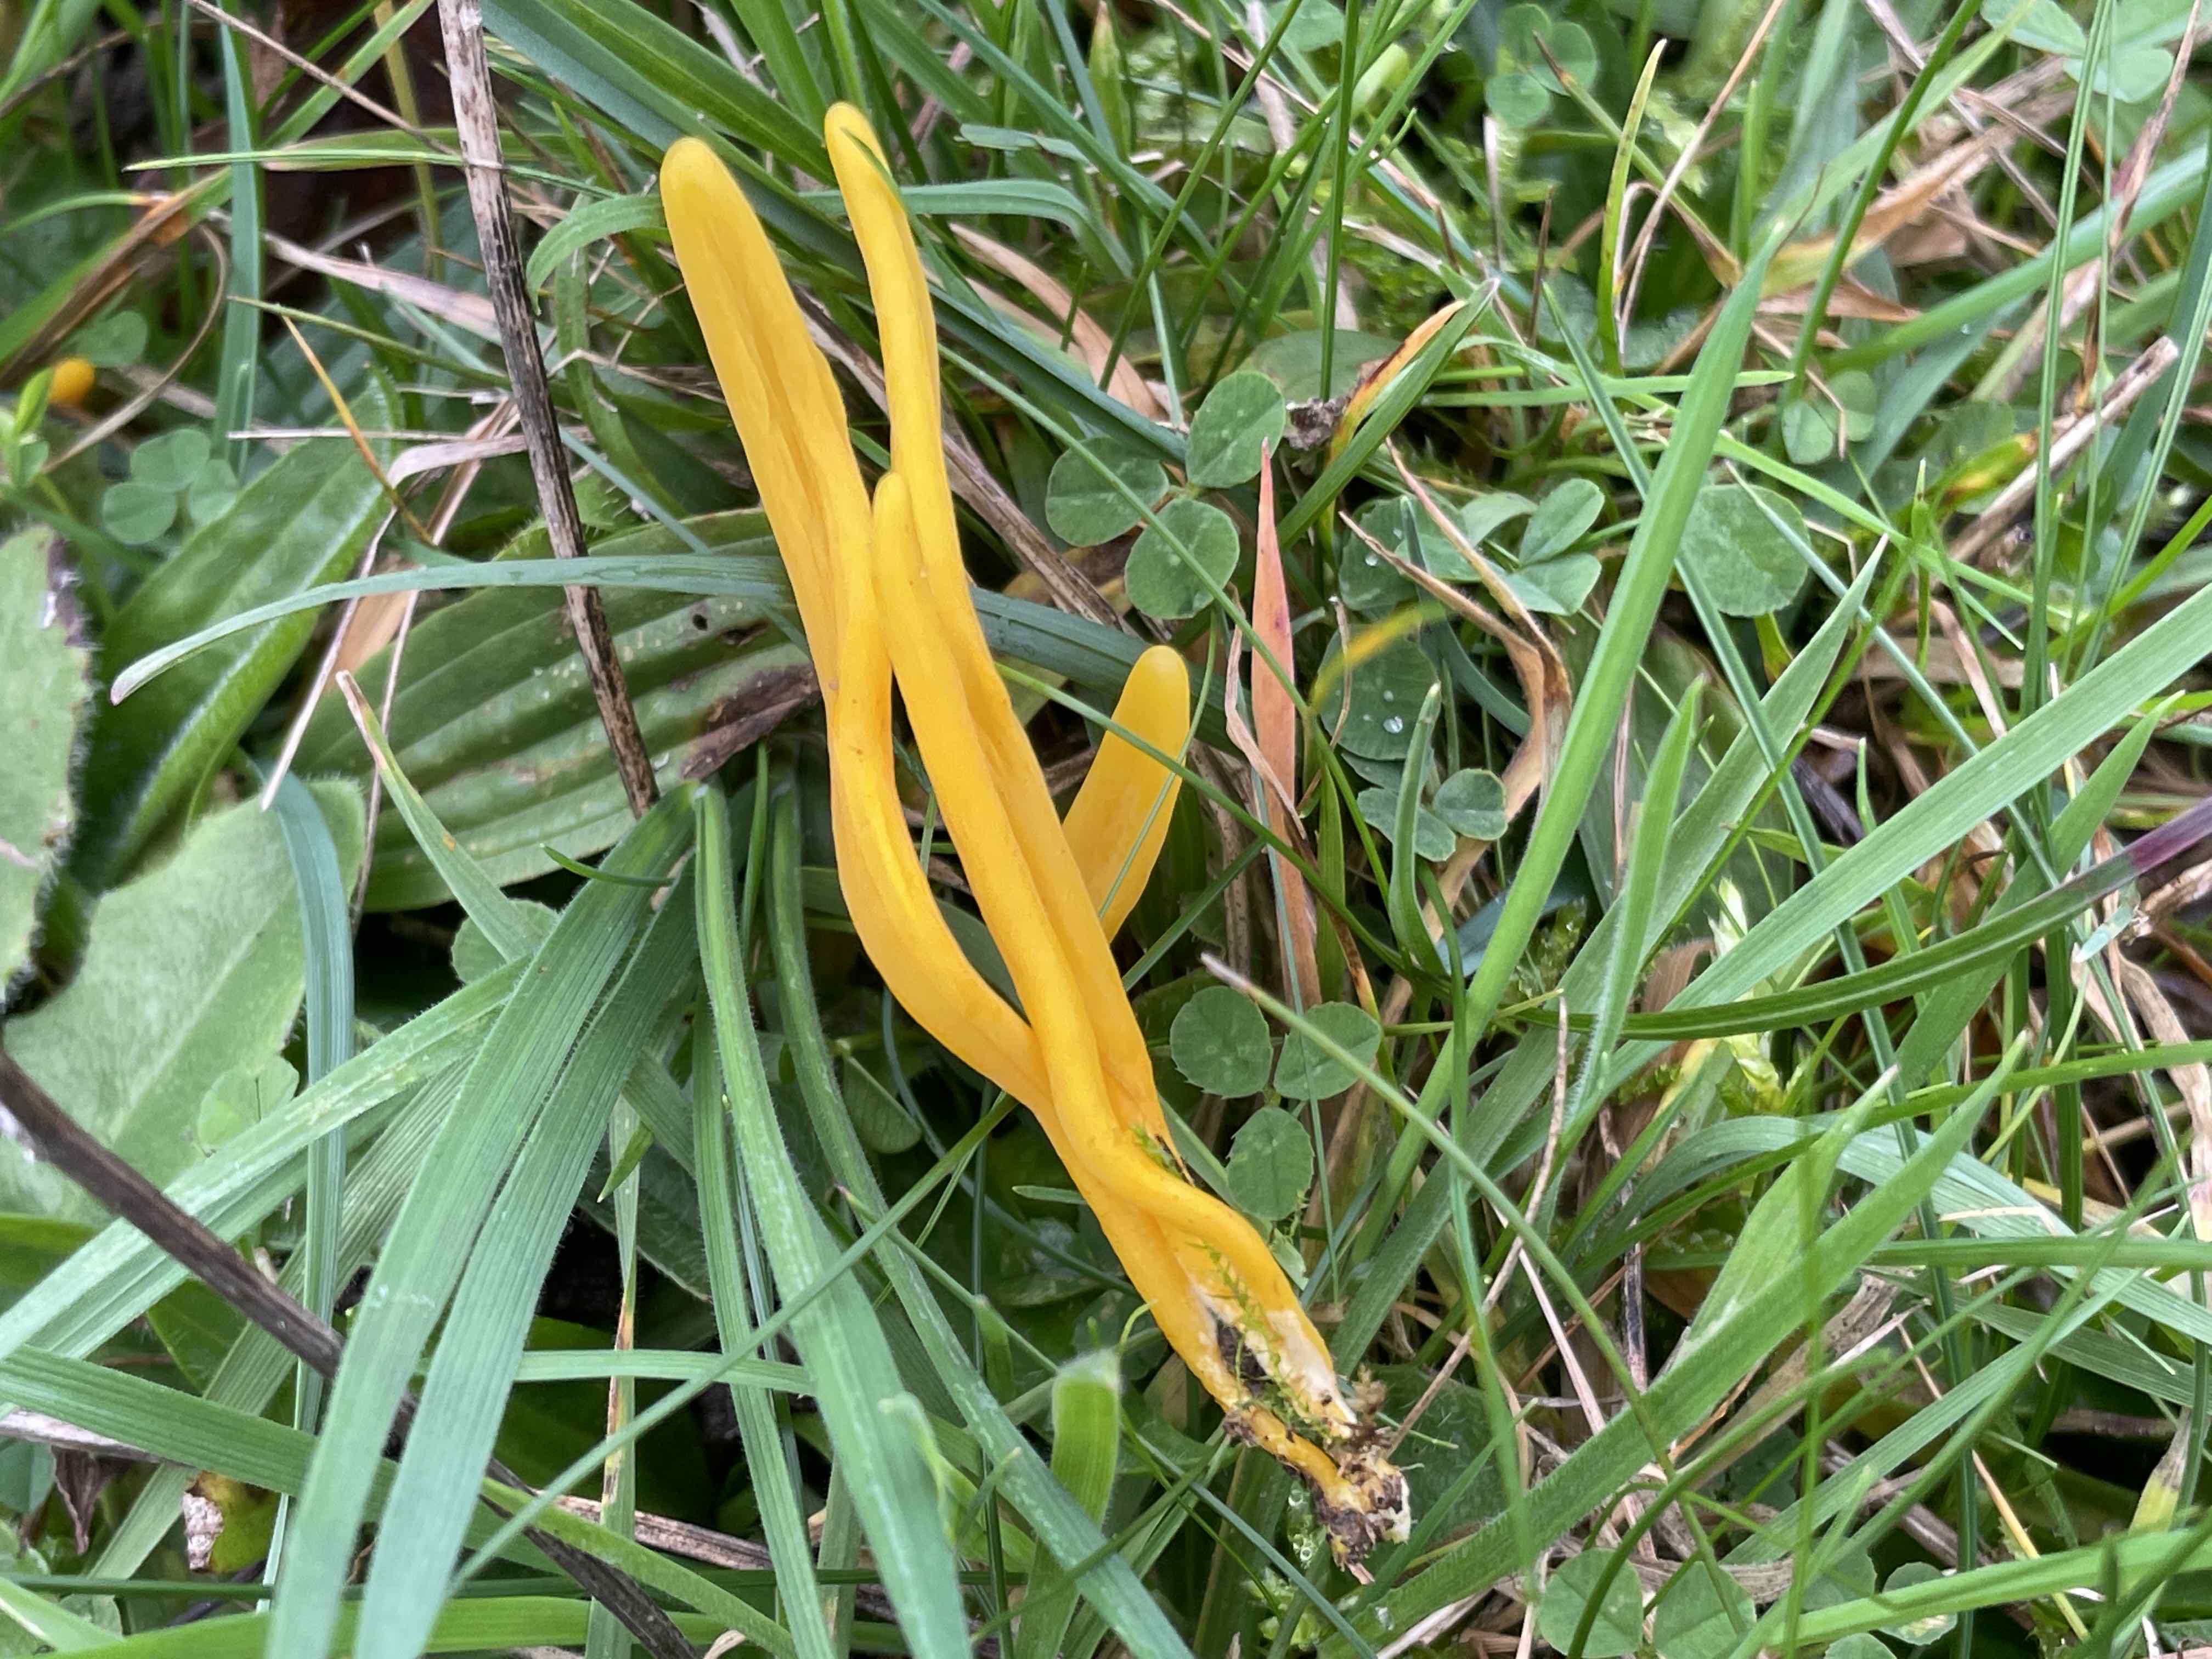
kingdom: Fungi
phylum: Basidiomycota
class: Agaricomycetes
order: Agaricales
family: Clavariaceae
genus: Clavulinopsis
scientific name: Clavulinopsis
